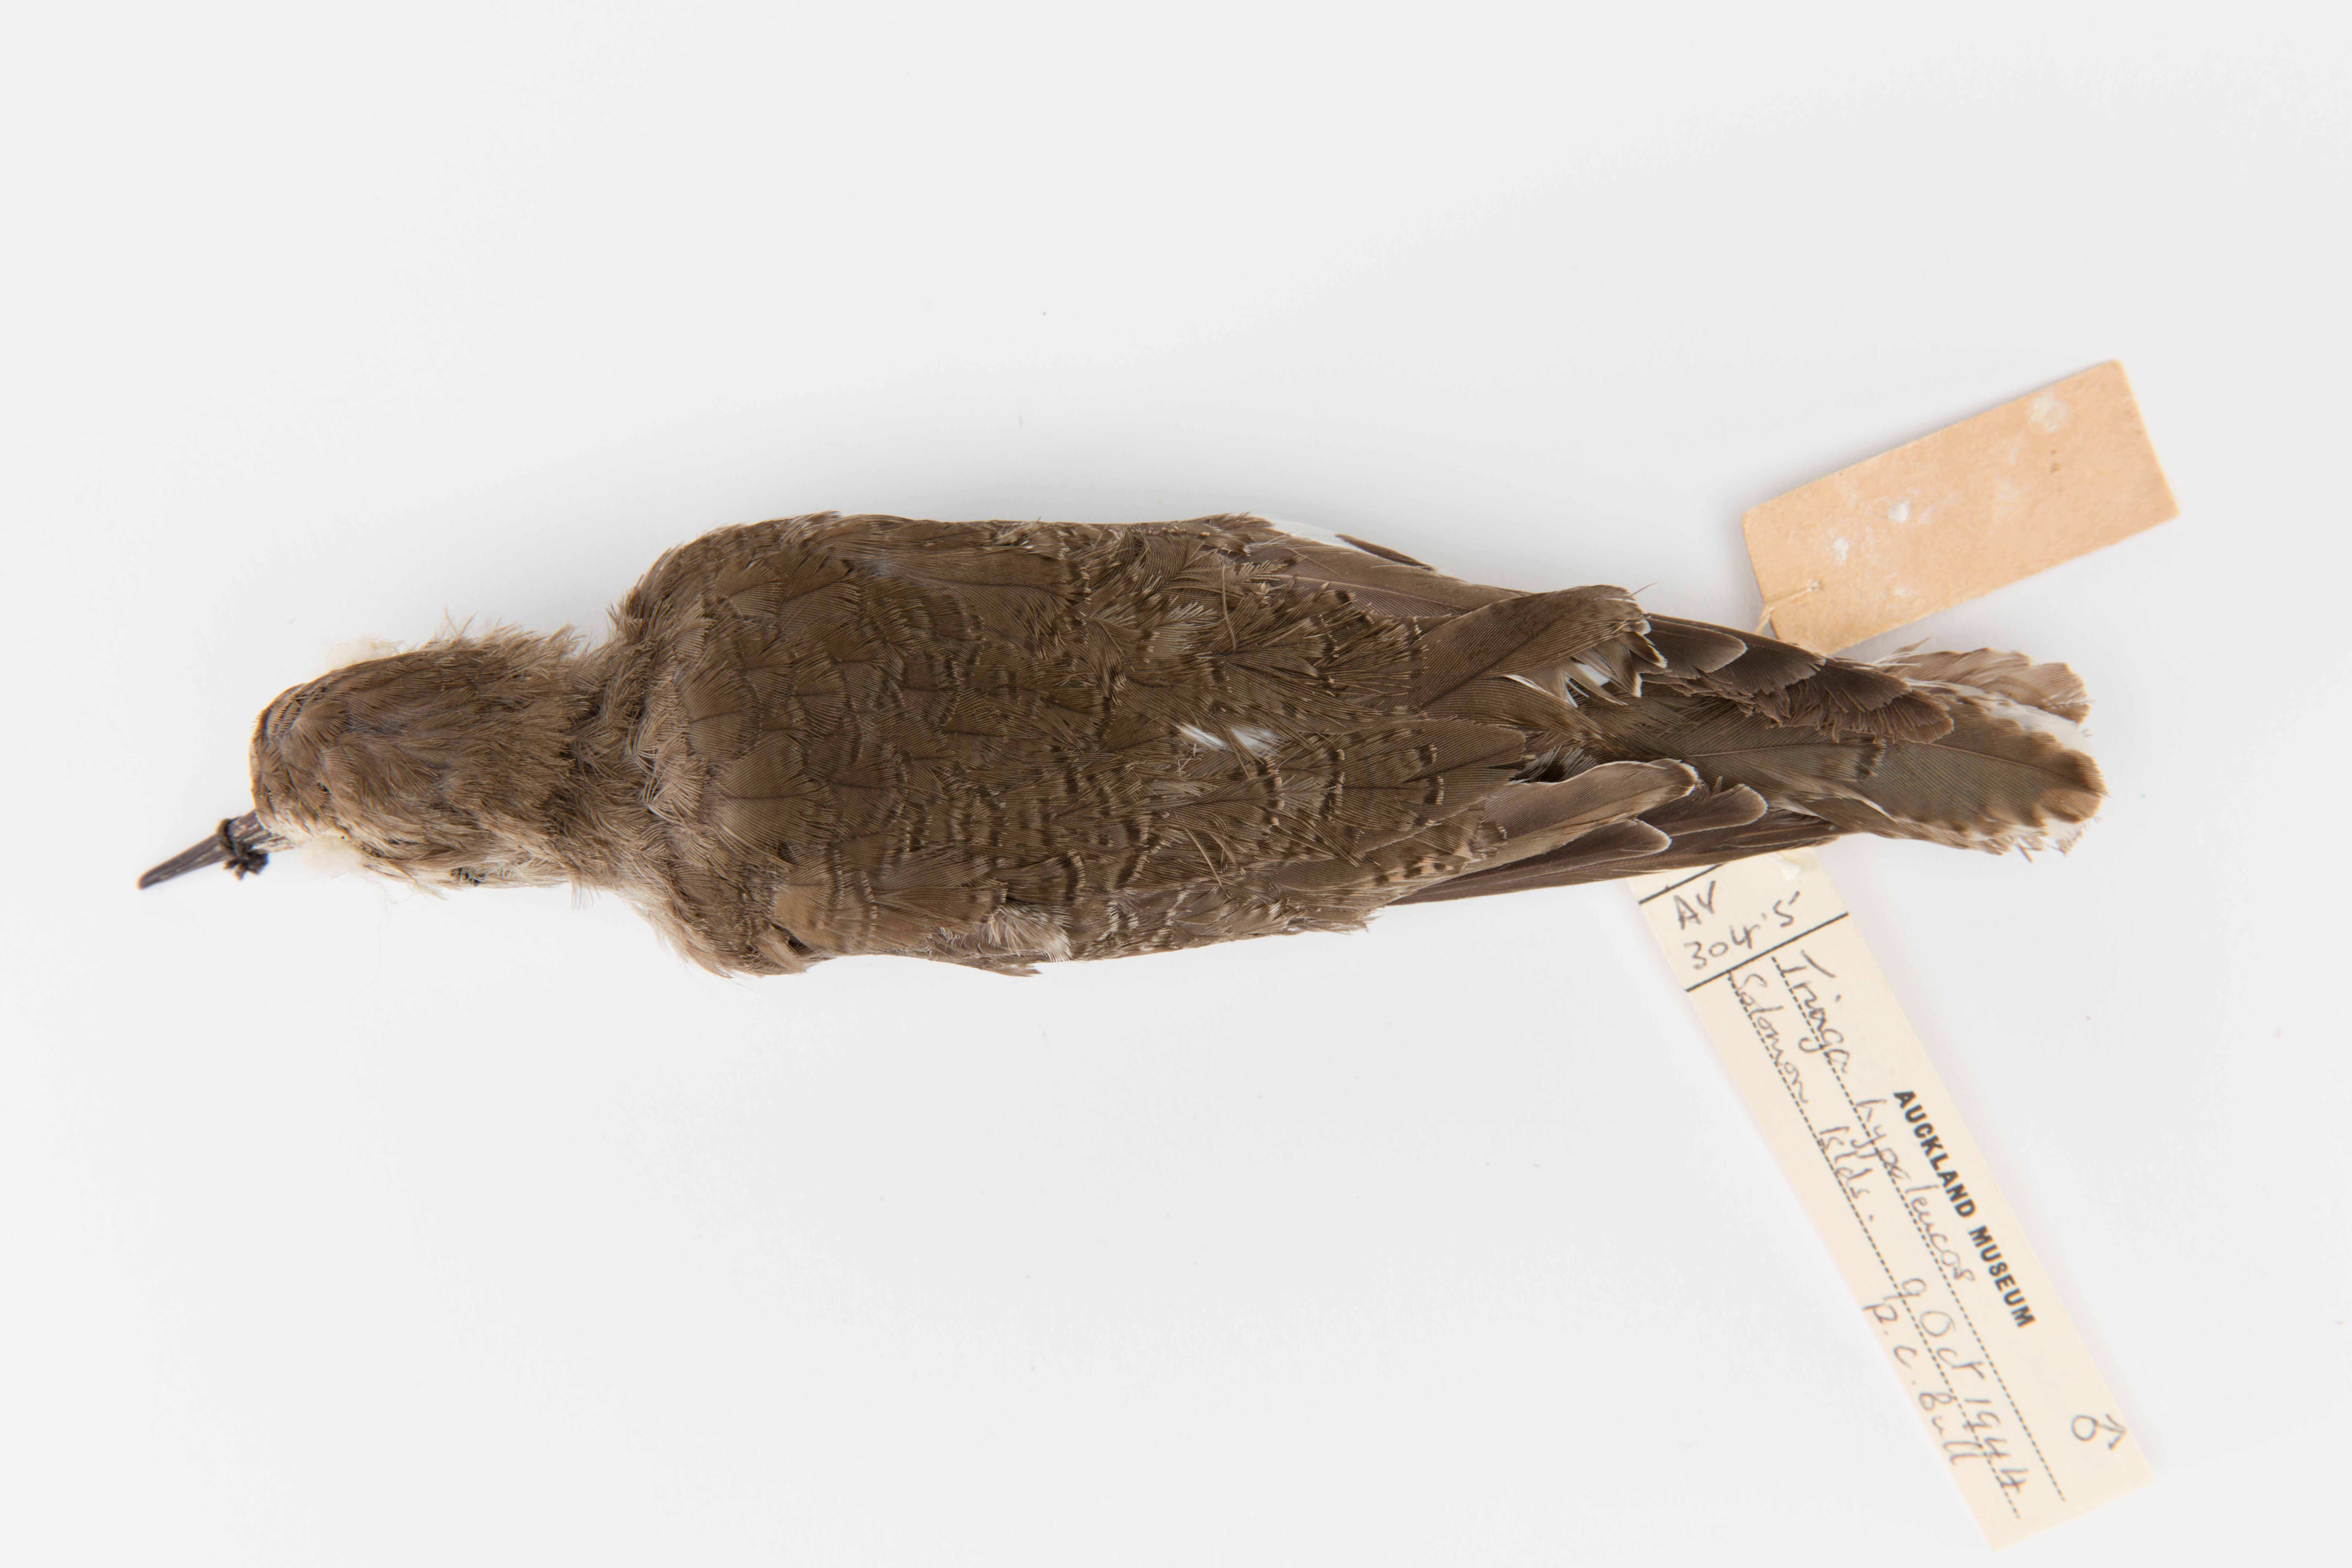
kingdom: Animalia
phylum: Chordata
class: Aves
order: Charadriiformes
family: Scolopacidae
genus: Actitis
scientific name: Actitis hypoleucos
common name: Common sandpiper
